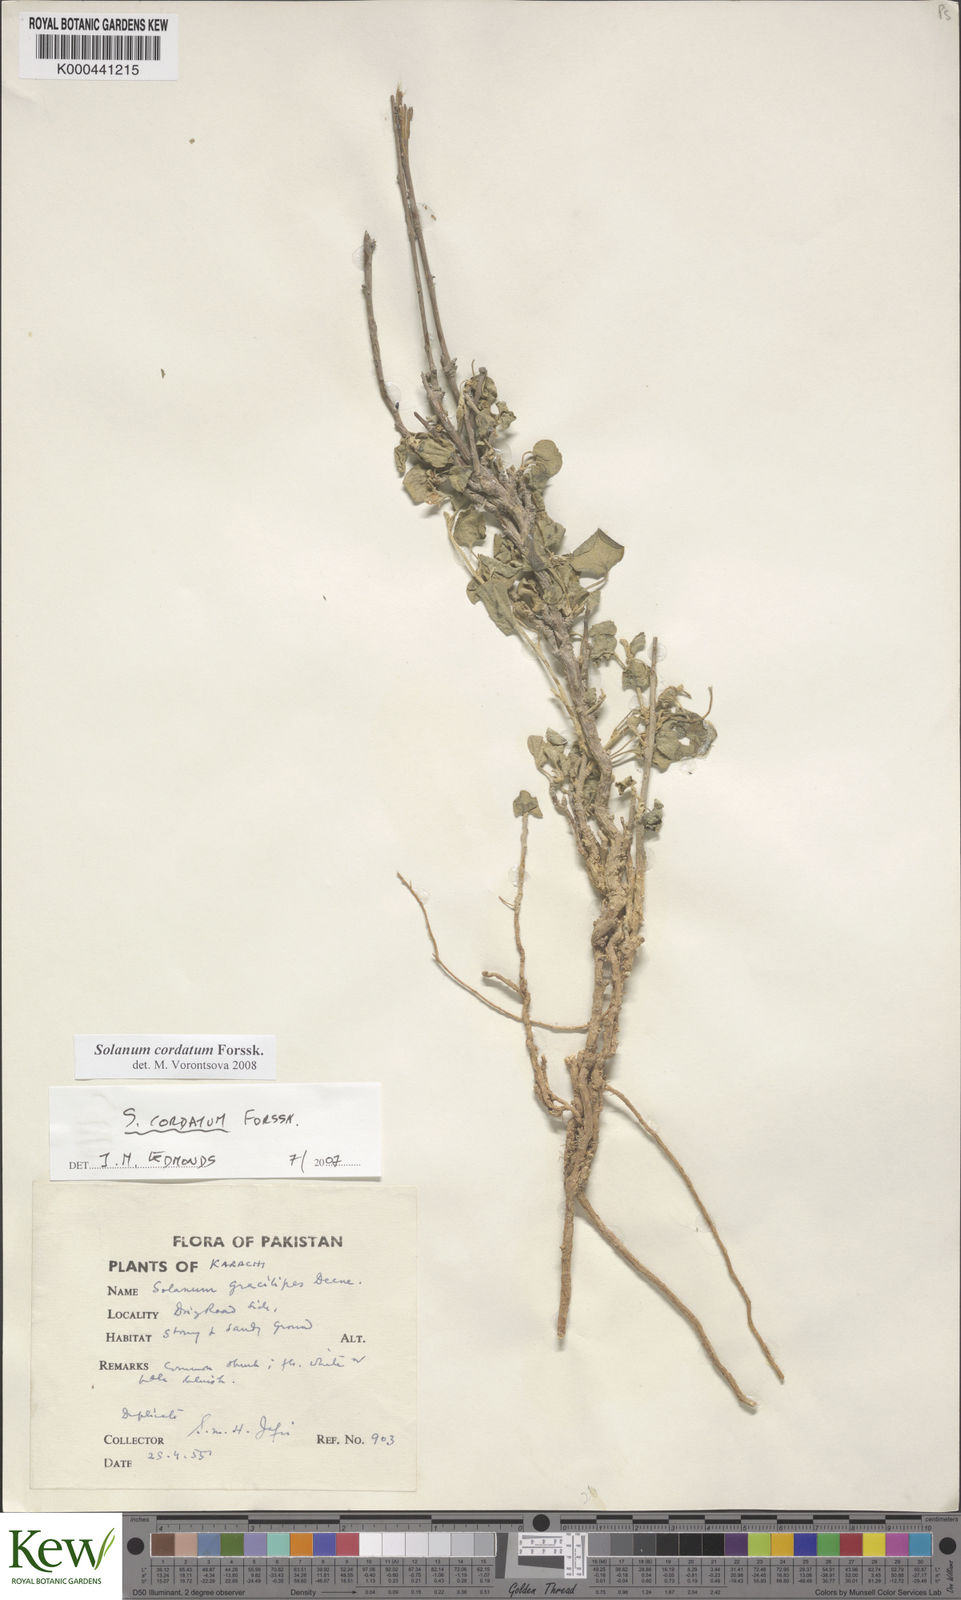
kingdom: Plantae
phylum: Tracheophyta
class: Magnoliopsida
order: Solanales
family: Solanaceae
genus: Solanum
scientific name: Solanum cordatum
